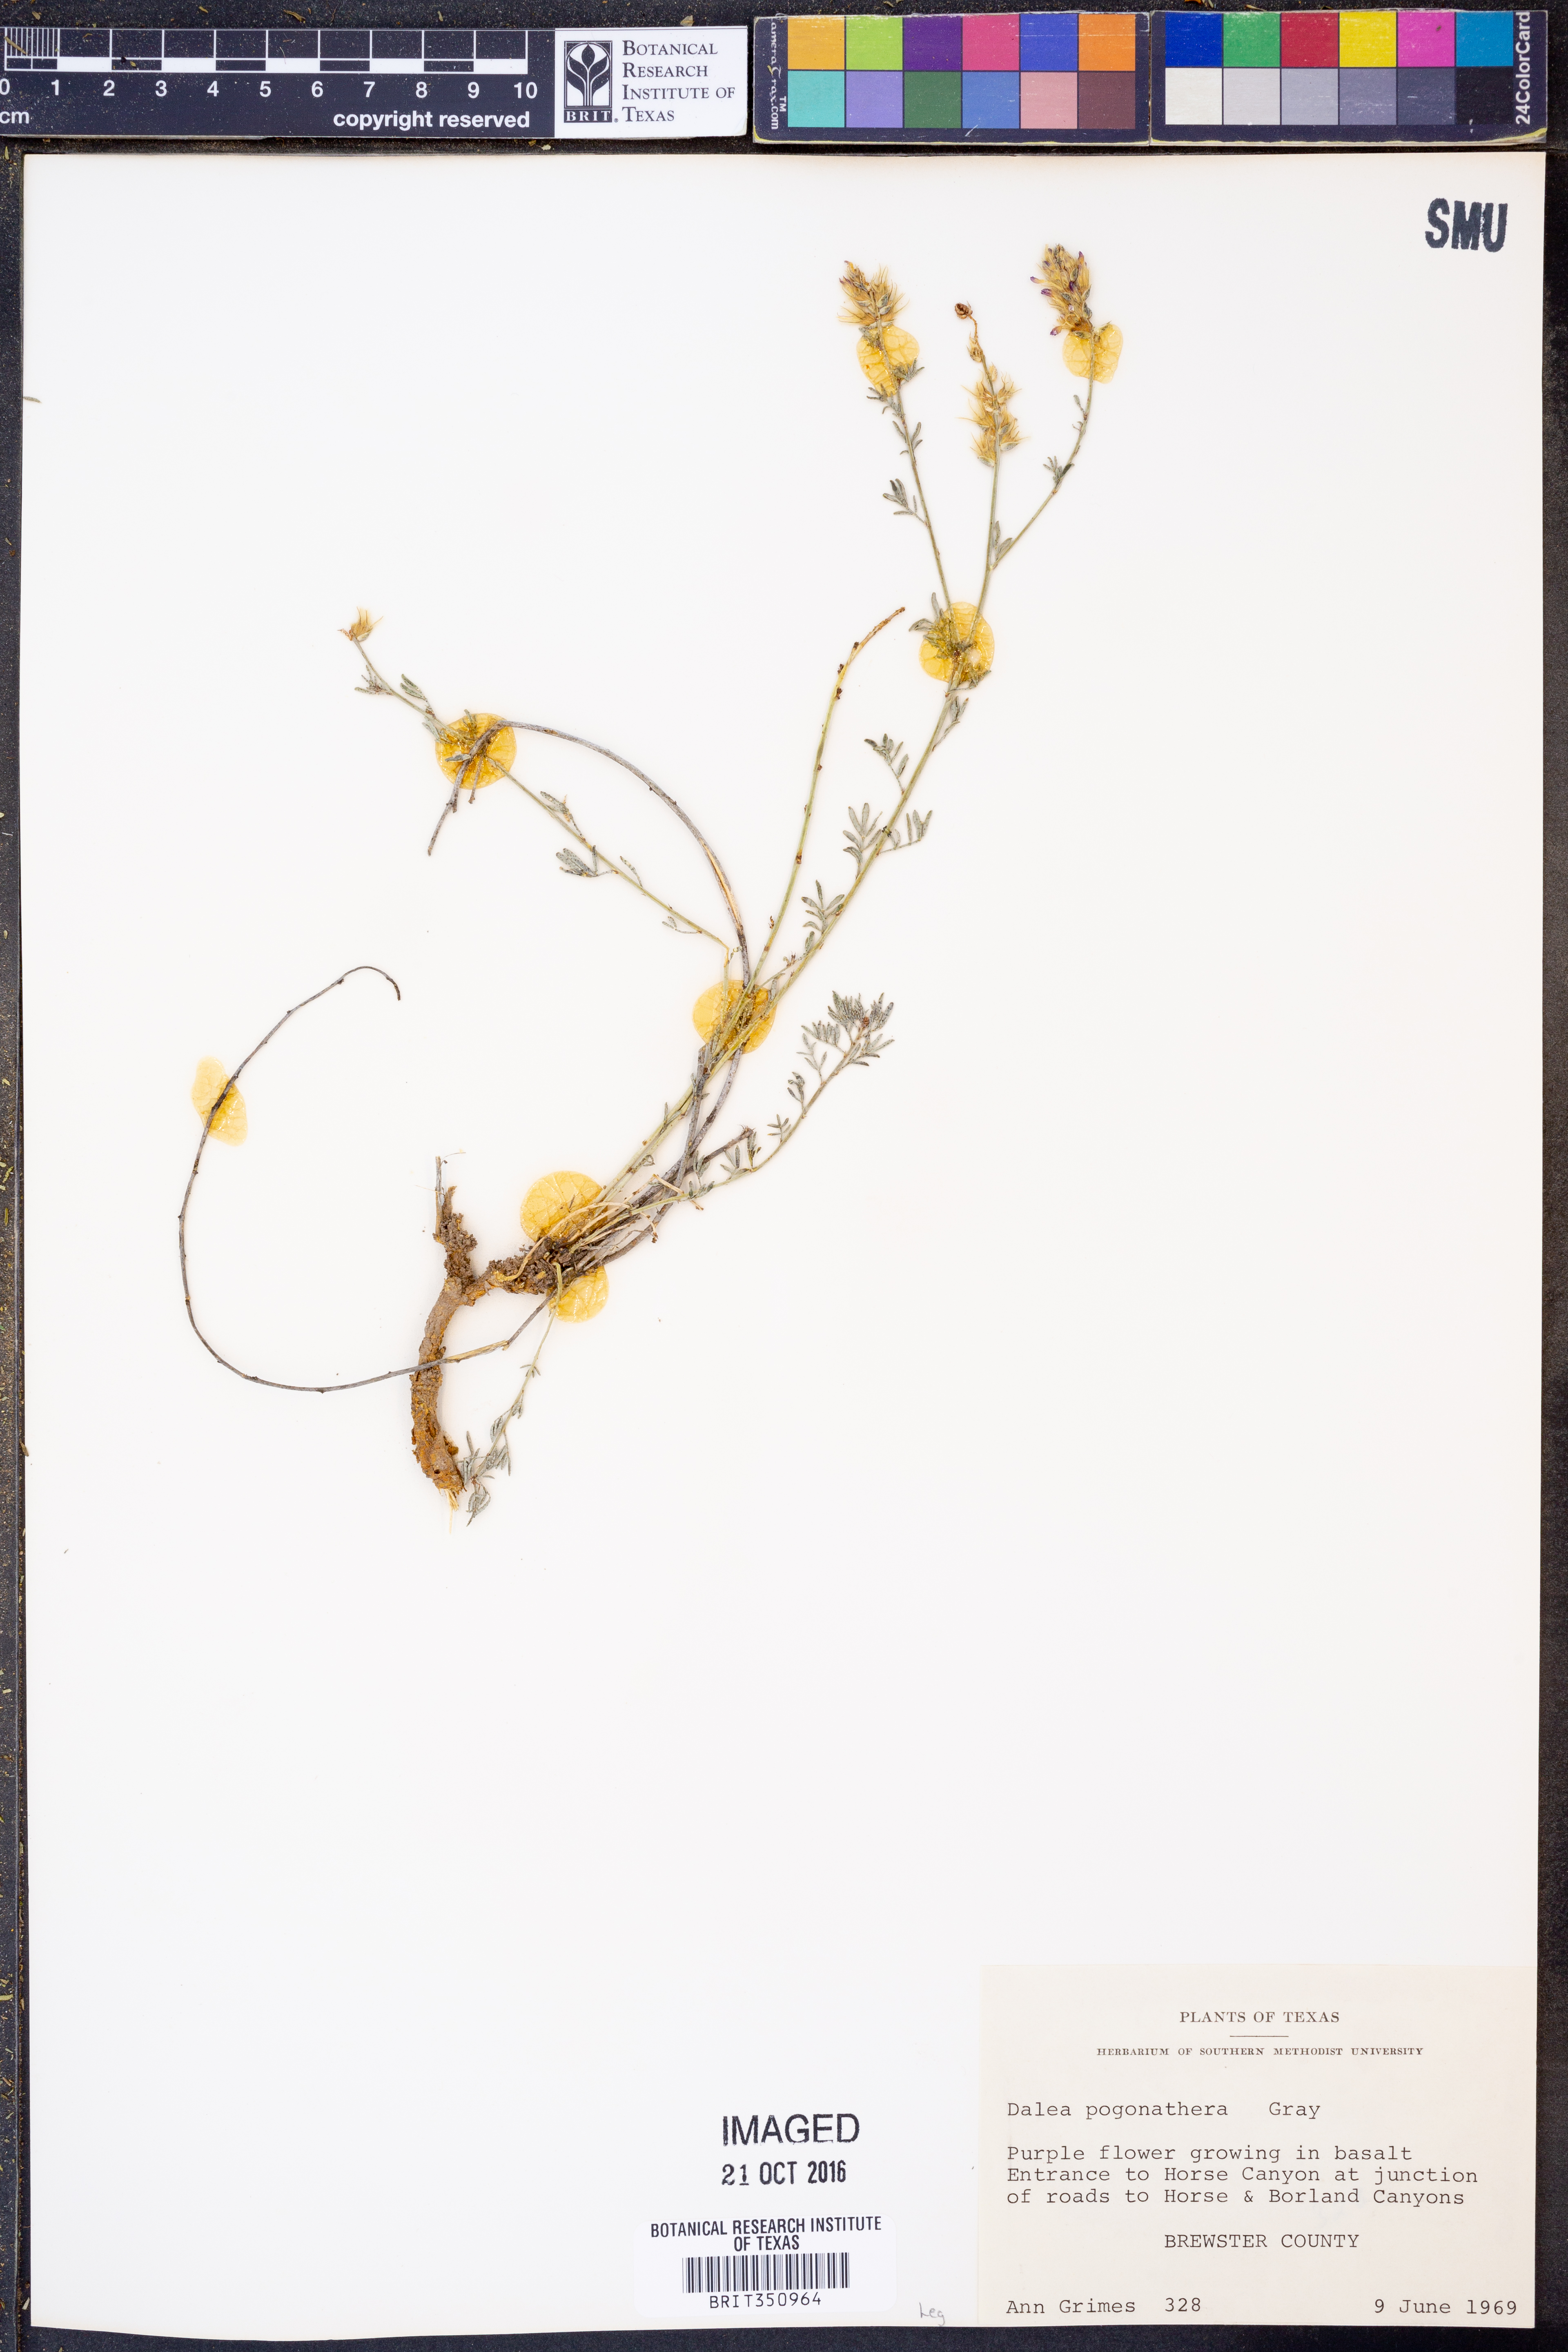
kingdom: Plantae
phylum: Tracheophyta
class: Magnoliopsida
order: Fabales
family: Fabaceae
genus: Dalea
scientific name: Dalea pogonathera
